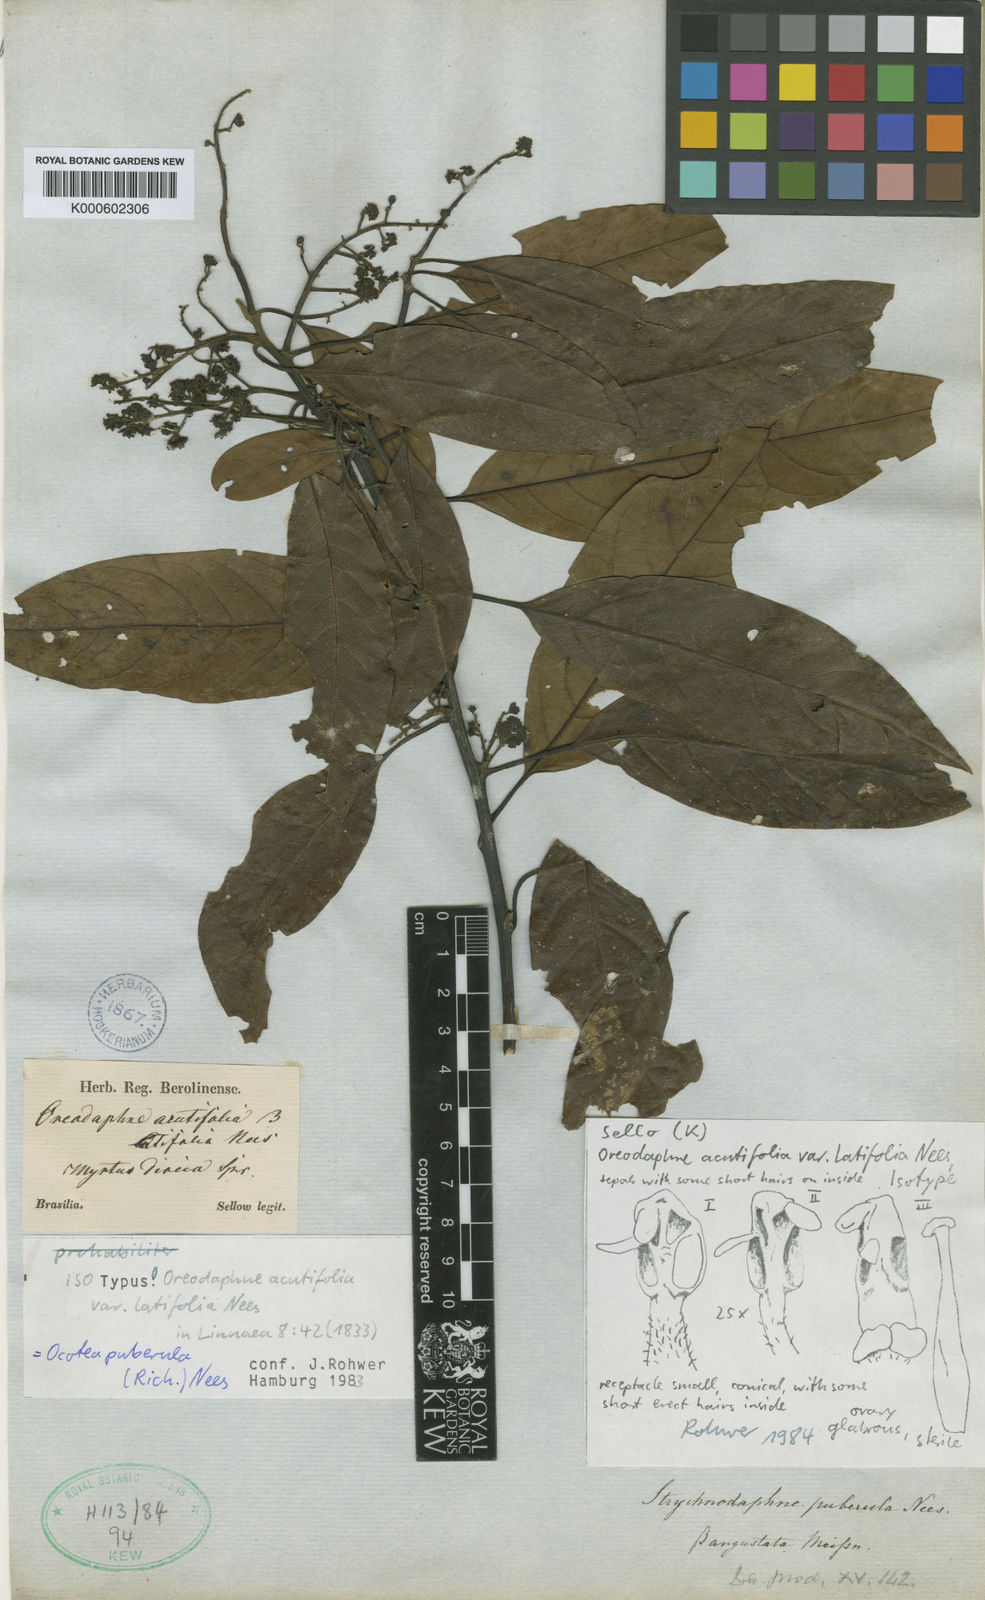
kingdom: Plantae
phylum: Tracheophyta
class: Magnoliopsida
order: Laurales
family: Lauraceae
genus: Ocotea
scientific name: Ocotea puberula
